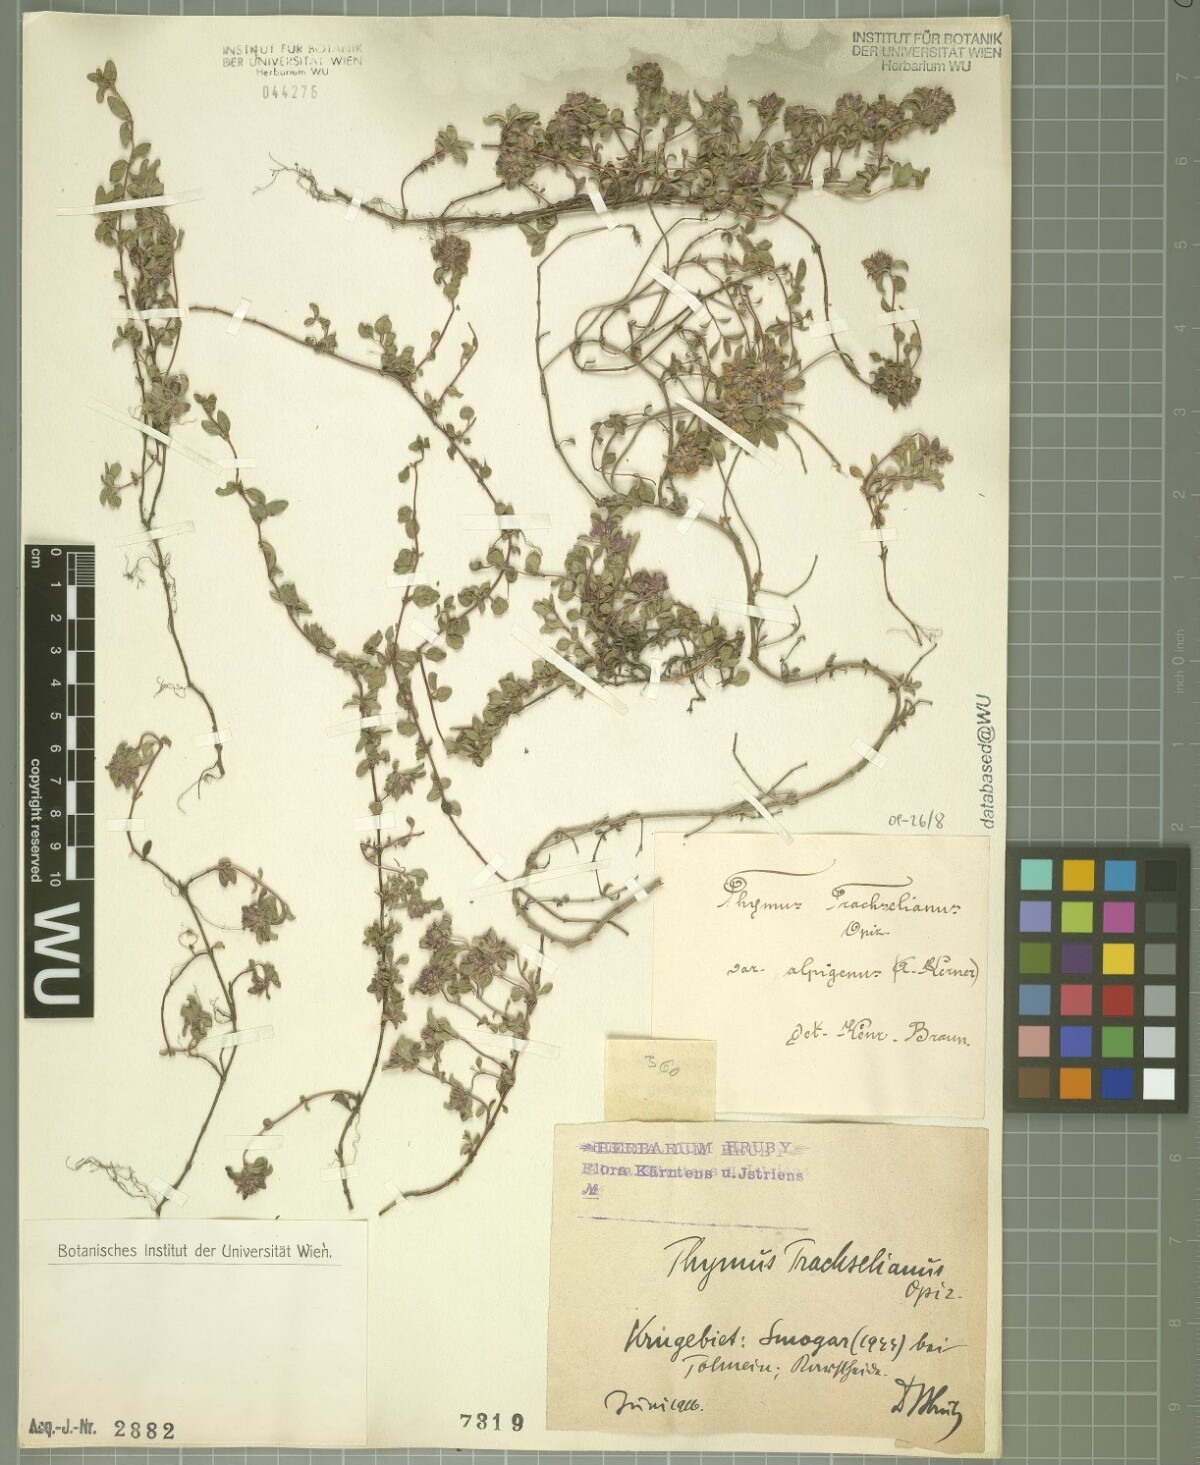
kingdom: Plantae
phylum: Tracheophyta
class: Magnoliopsida
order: Lamiales
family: Lamiaceae
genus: Thymus
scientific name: Thymus praecox
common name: Wild thyme
